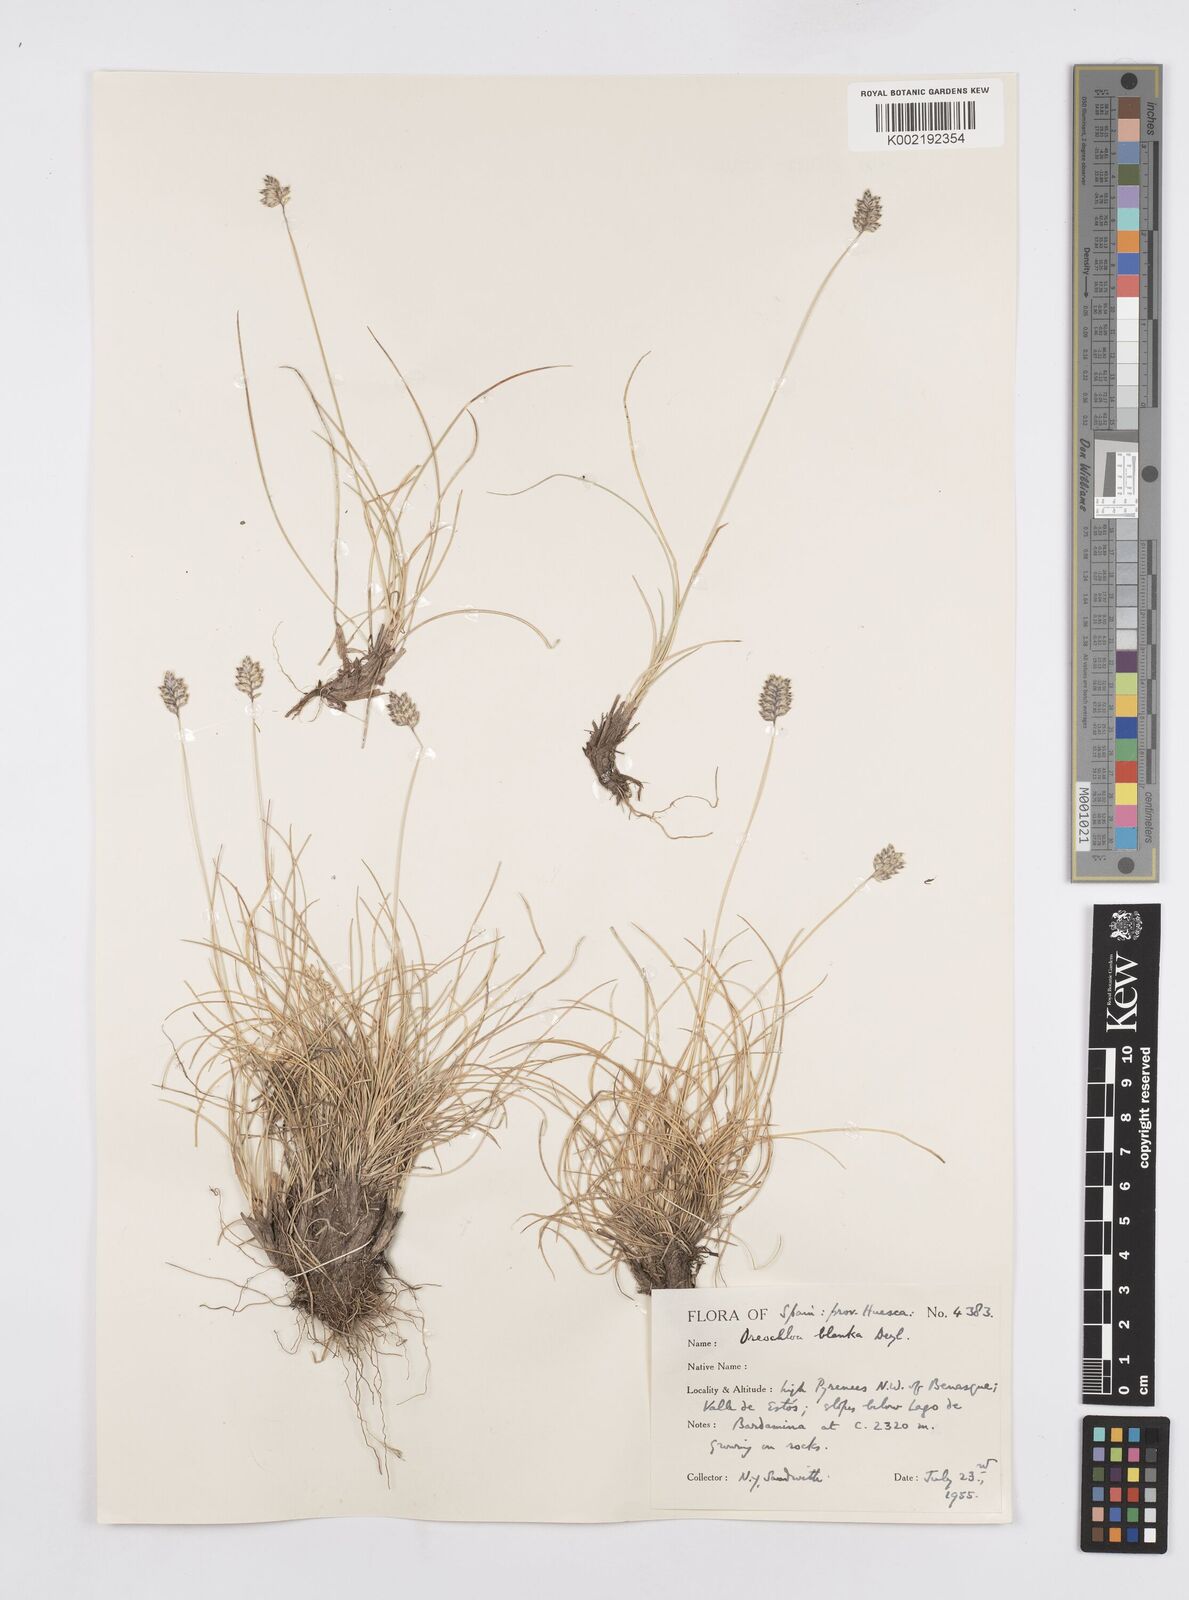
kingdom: Plantae
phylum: Tracheophyta
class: Liliopsida
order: Poales
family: Poaceae
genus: Oreochloa
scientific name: Oreochloa elegans
